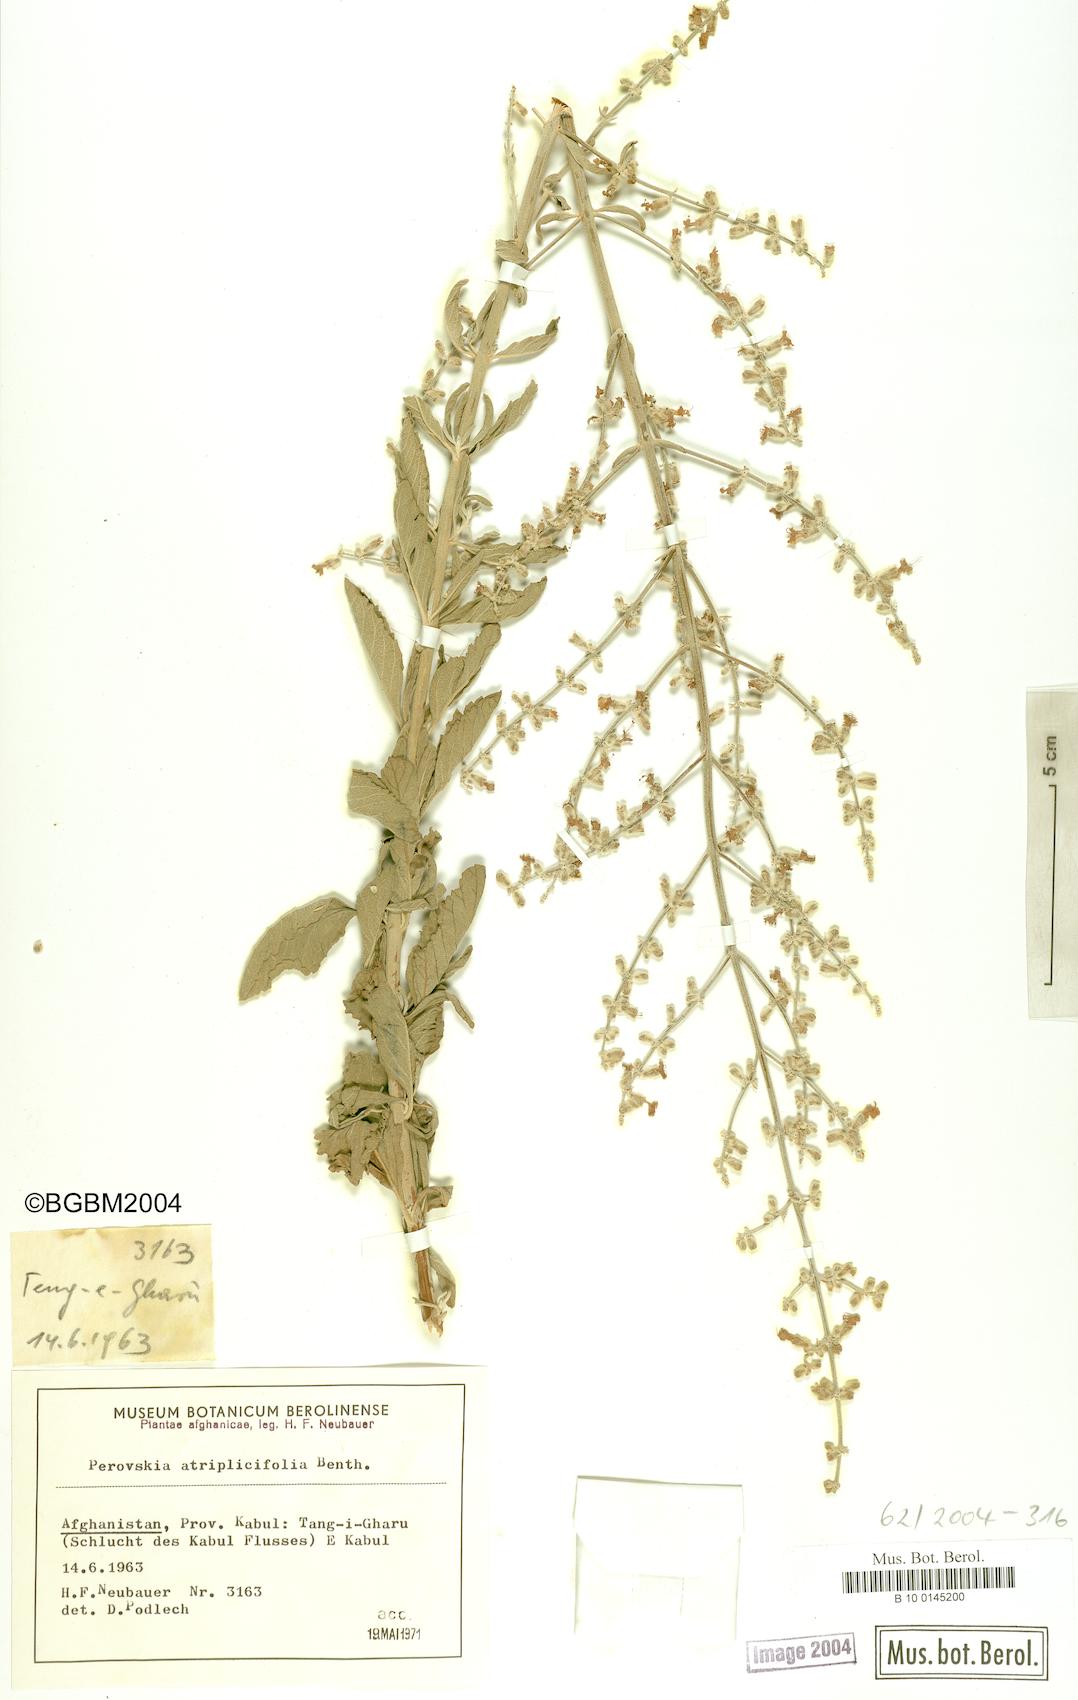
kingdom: Plantae
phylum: Tracheophyta
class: Magnoliopsida
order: Lamiales
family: Lamiaceae
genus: Salvia
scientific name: Salvia yangii
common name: Russian sage
